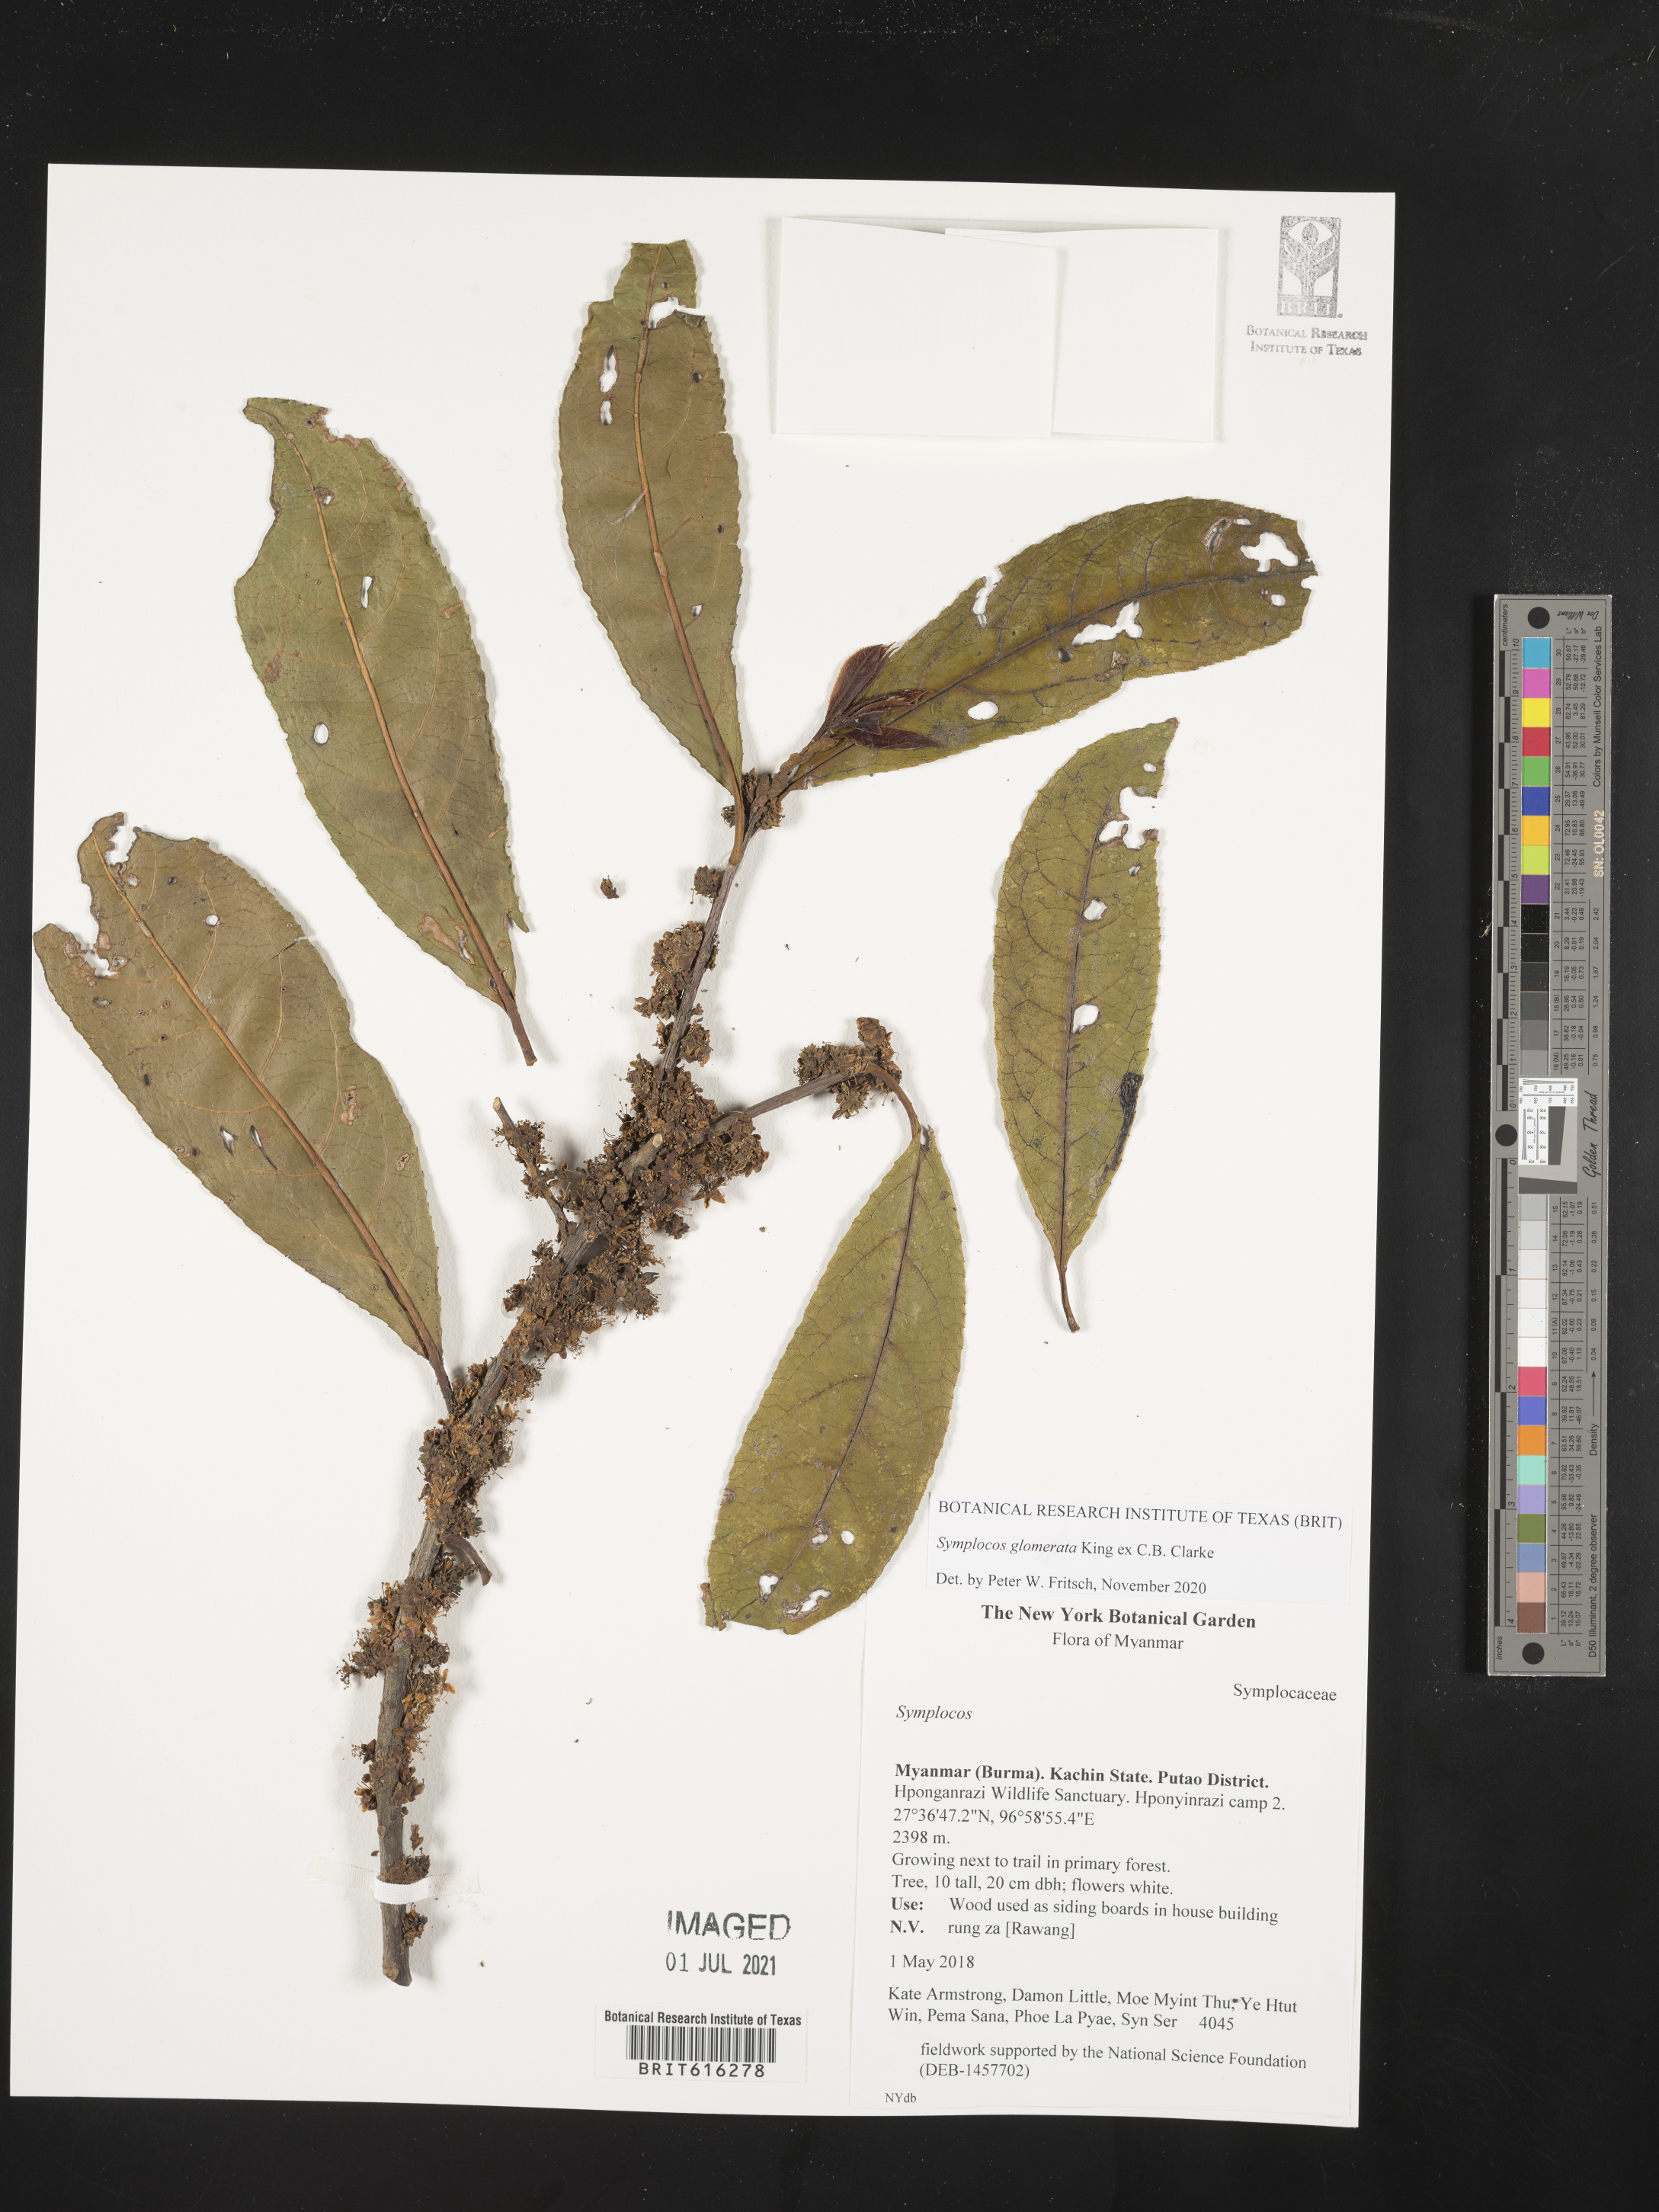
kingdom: Plantae
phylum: Tracheophyta
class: Magnoliopsida
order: Ericales
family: Symplocaceae
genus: Symplocos
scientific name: Symplocos glomerata
